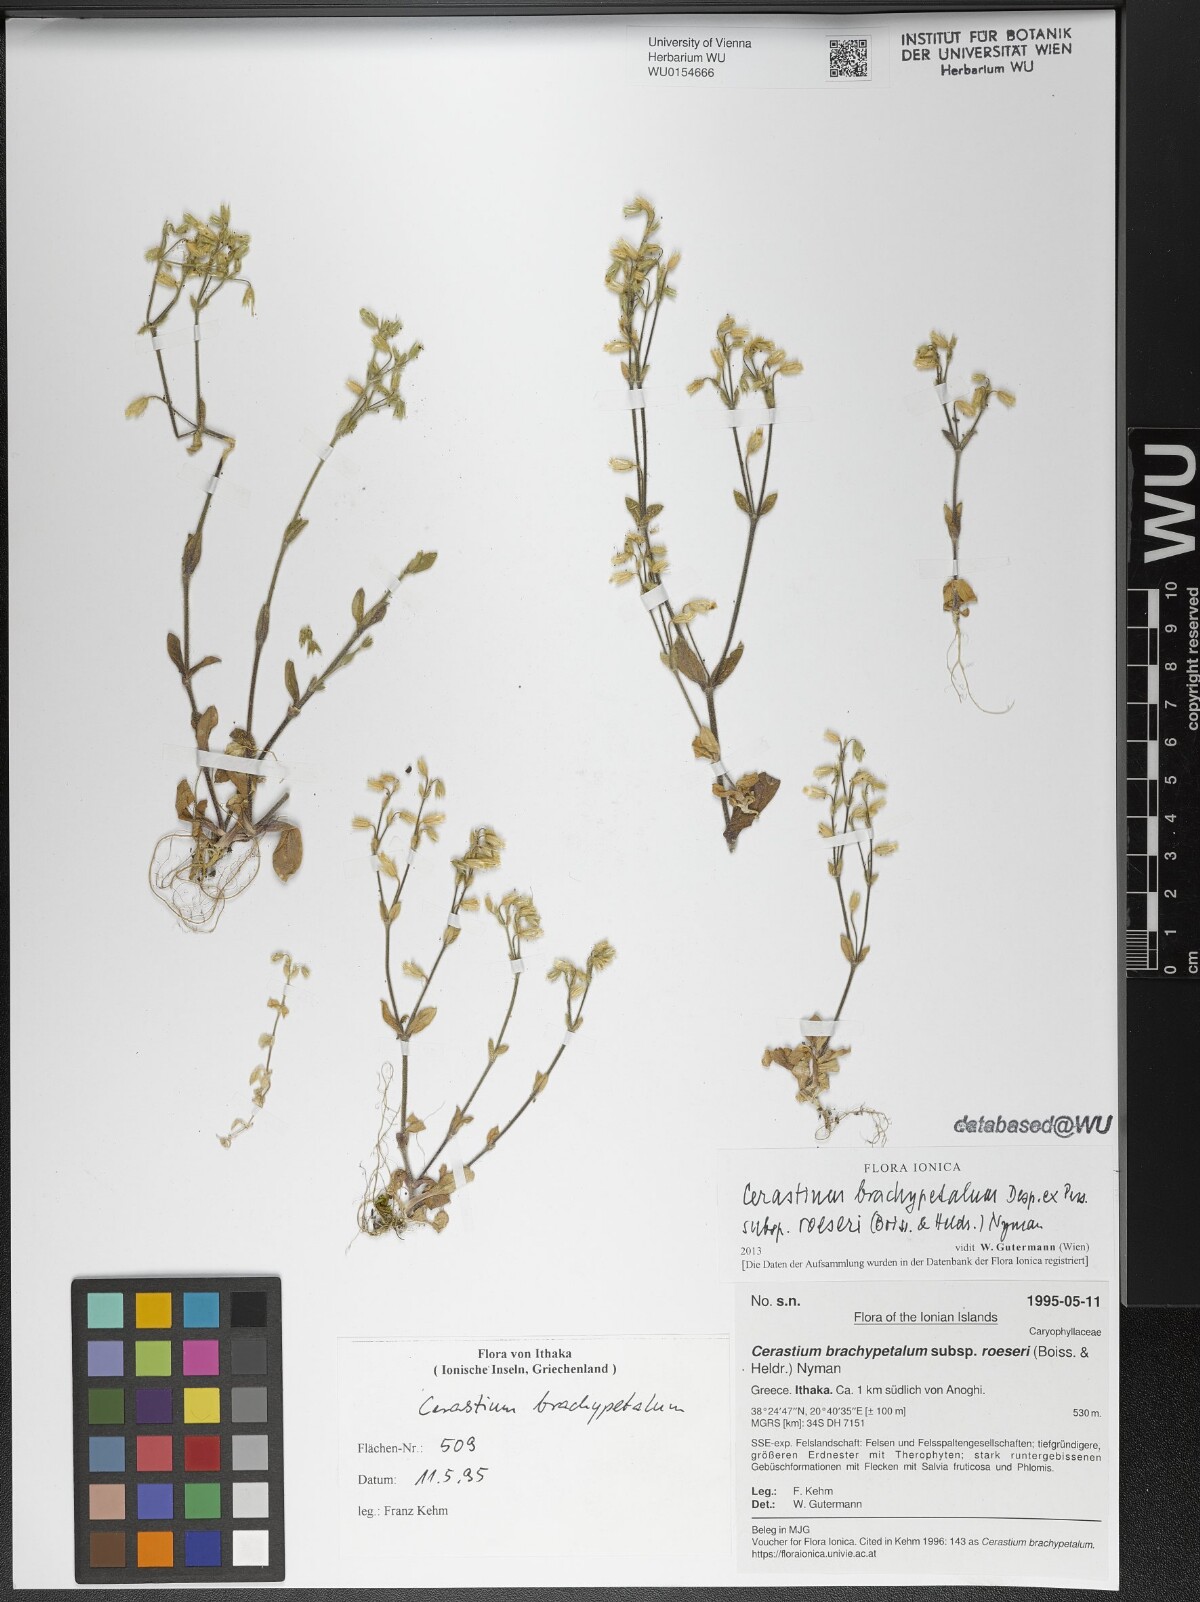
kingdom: Plantae
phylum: Tracheophyta
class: Magnoliopsida
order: Caryophyllales
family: Caryophyllaceae
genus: Cerastium
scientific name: Cerastium brachypetalum
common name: Grey mouse-ear
